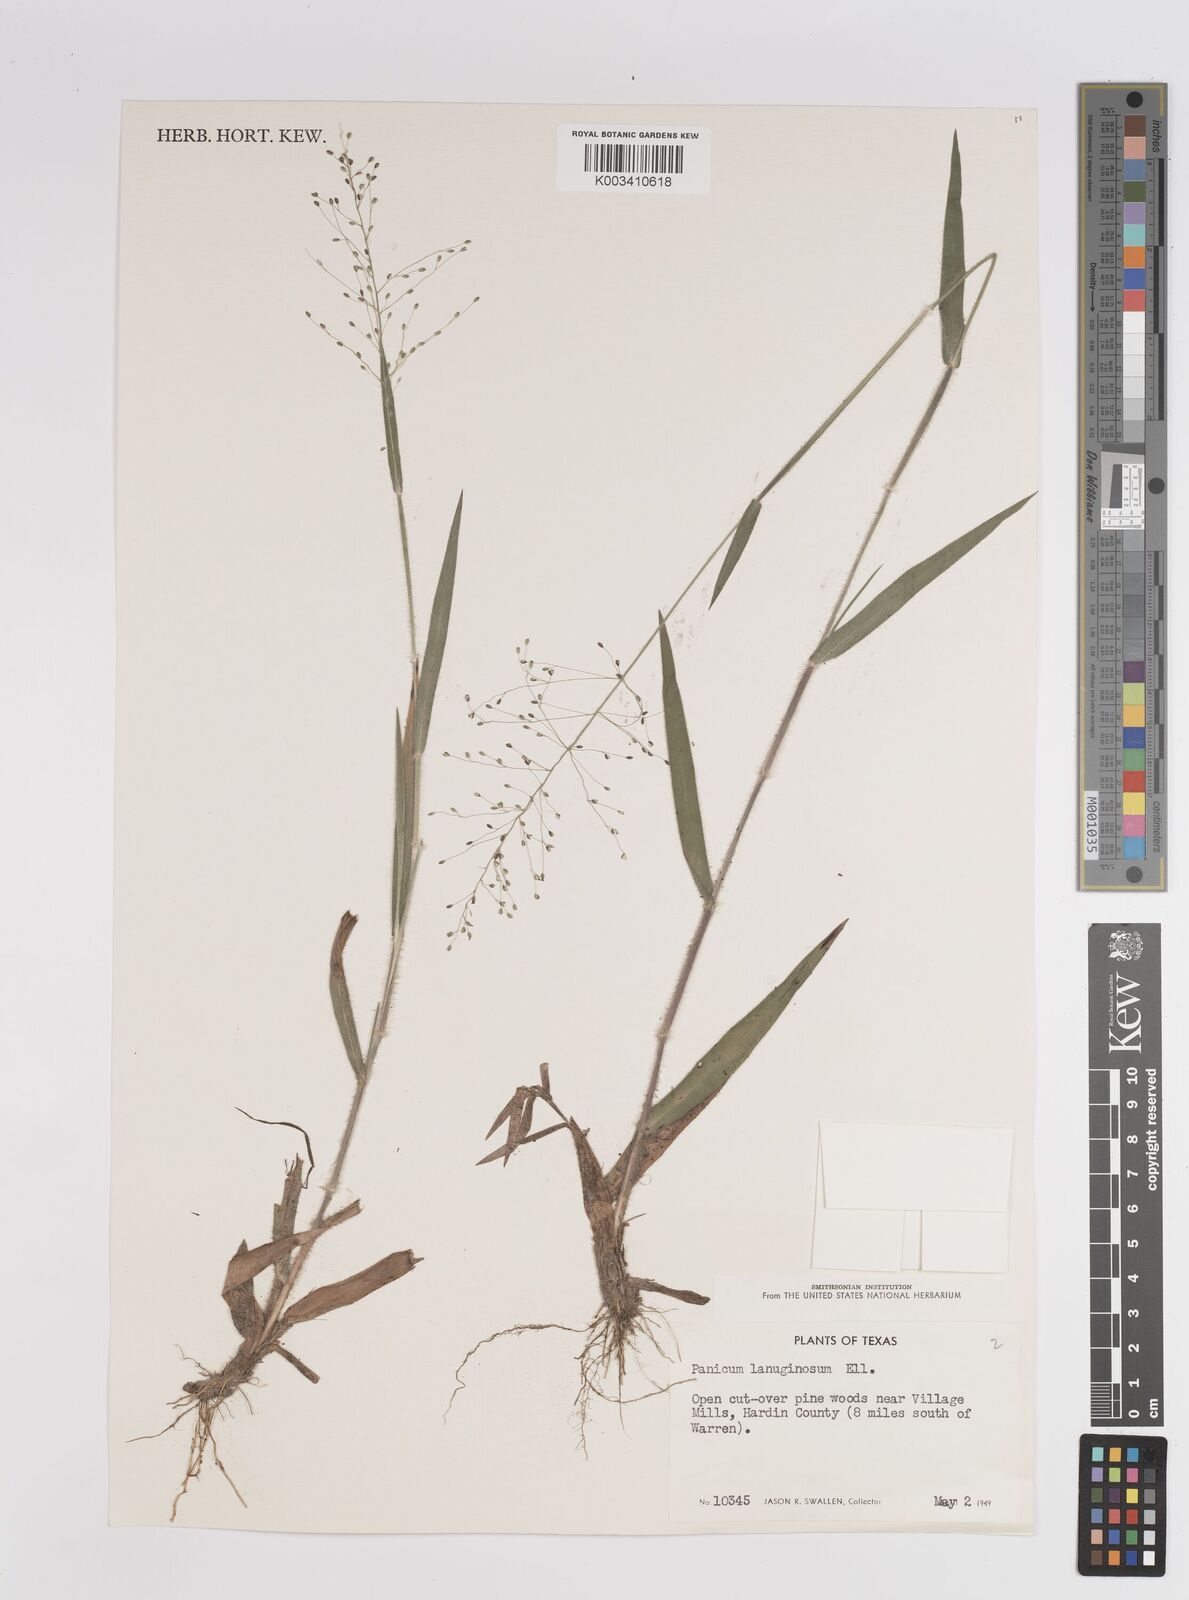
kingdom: Plantae
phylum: Tracheophyta
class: Liliopsida
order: Poales
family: Poaceae
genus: Dichanthelium
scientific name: Dichanthelium lanuginosum
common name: Woolly panicgrass
